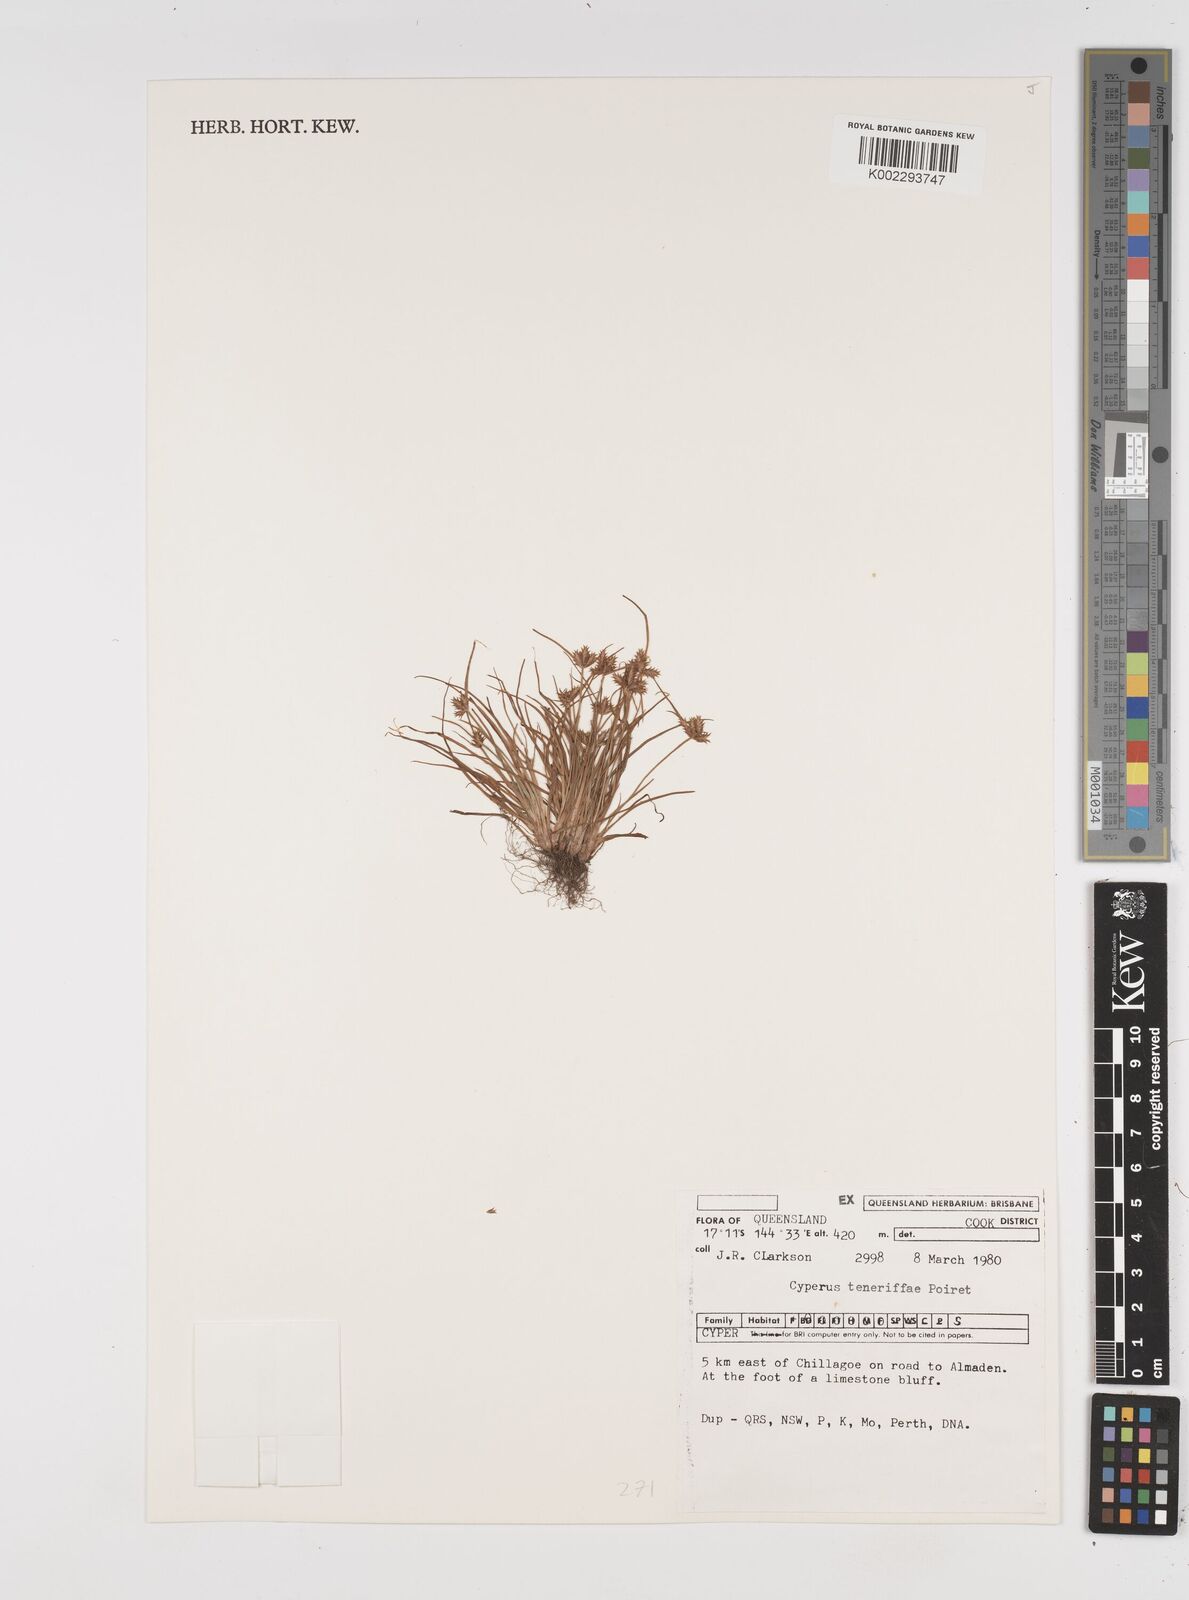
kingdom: Plantae
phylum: Tracheophyta
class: Liliopsida
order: Poales
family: Cyperaceae
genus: Cyperus
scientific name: Cyperus rubicundus
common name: Coco-grass
